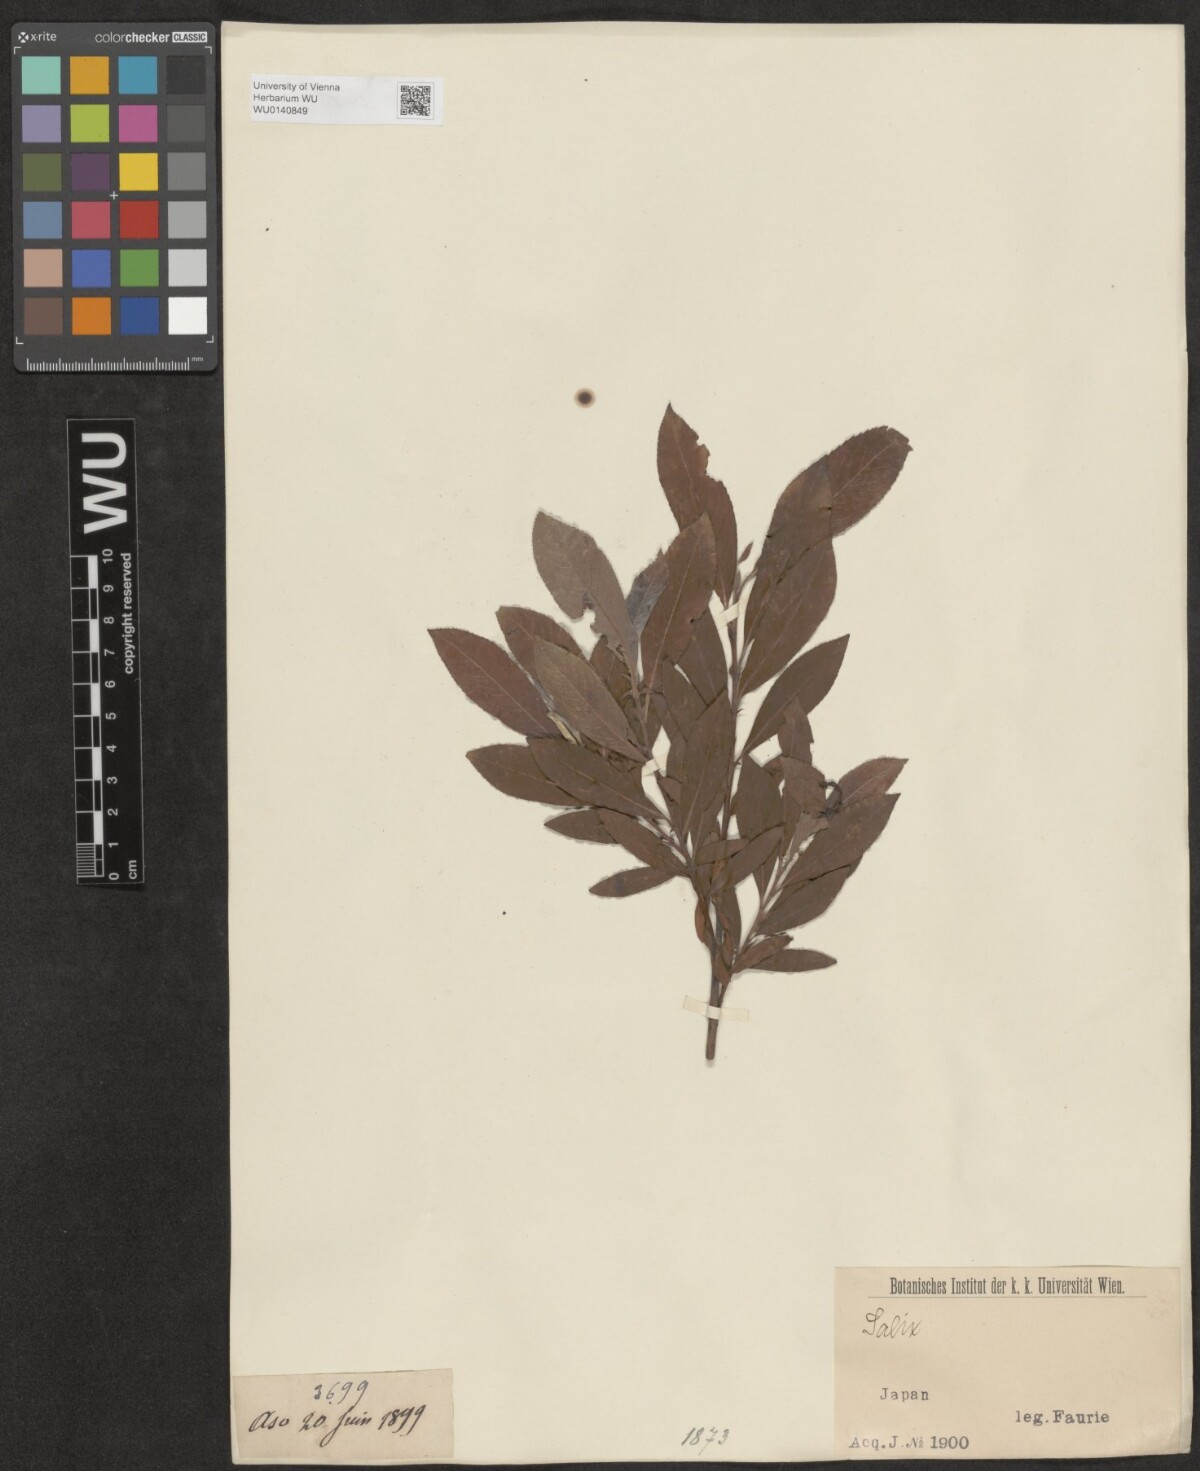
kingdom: Plantae
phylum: Tracheophyta
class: Magnoliopsida
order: Malpighiales
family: Salicaceae
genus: Salix
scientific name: Salix
